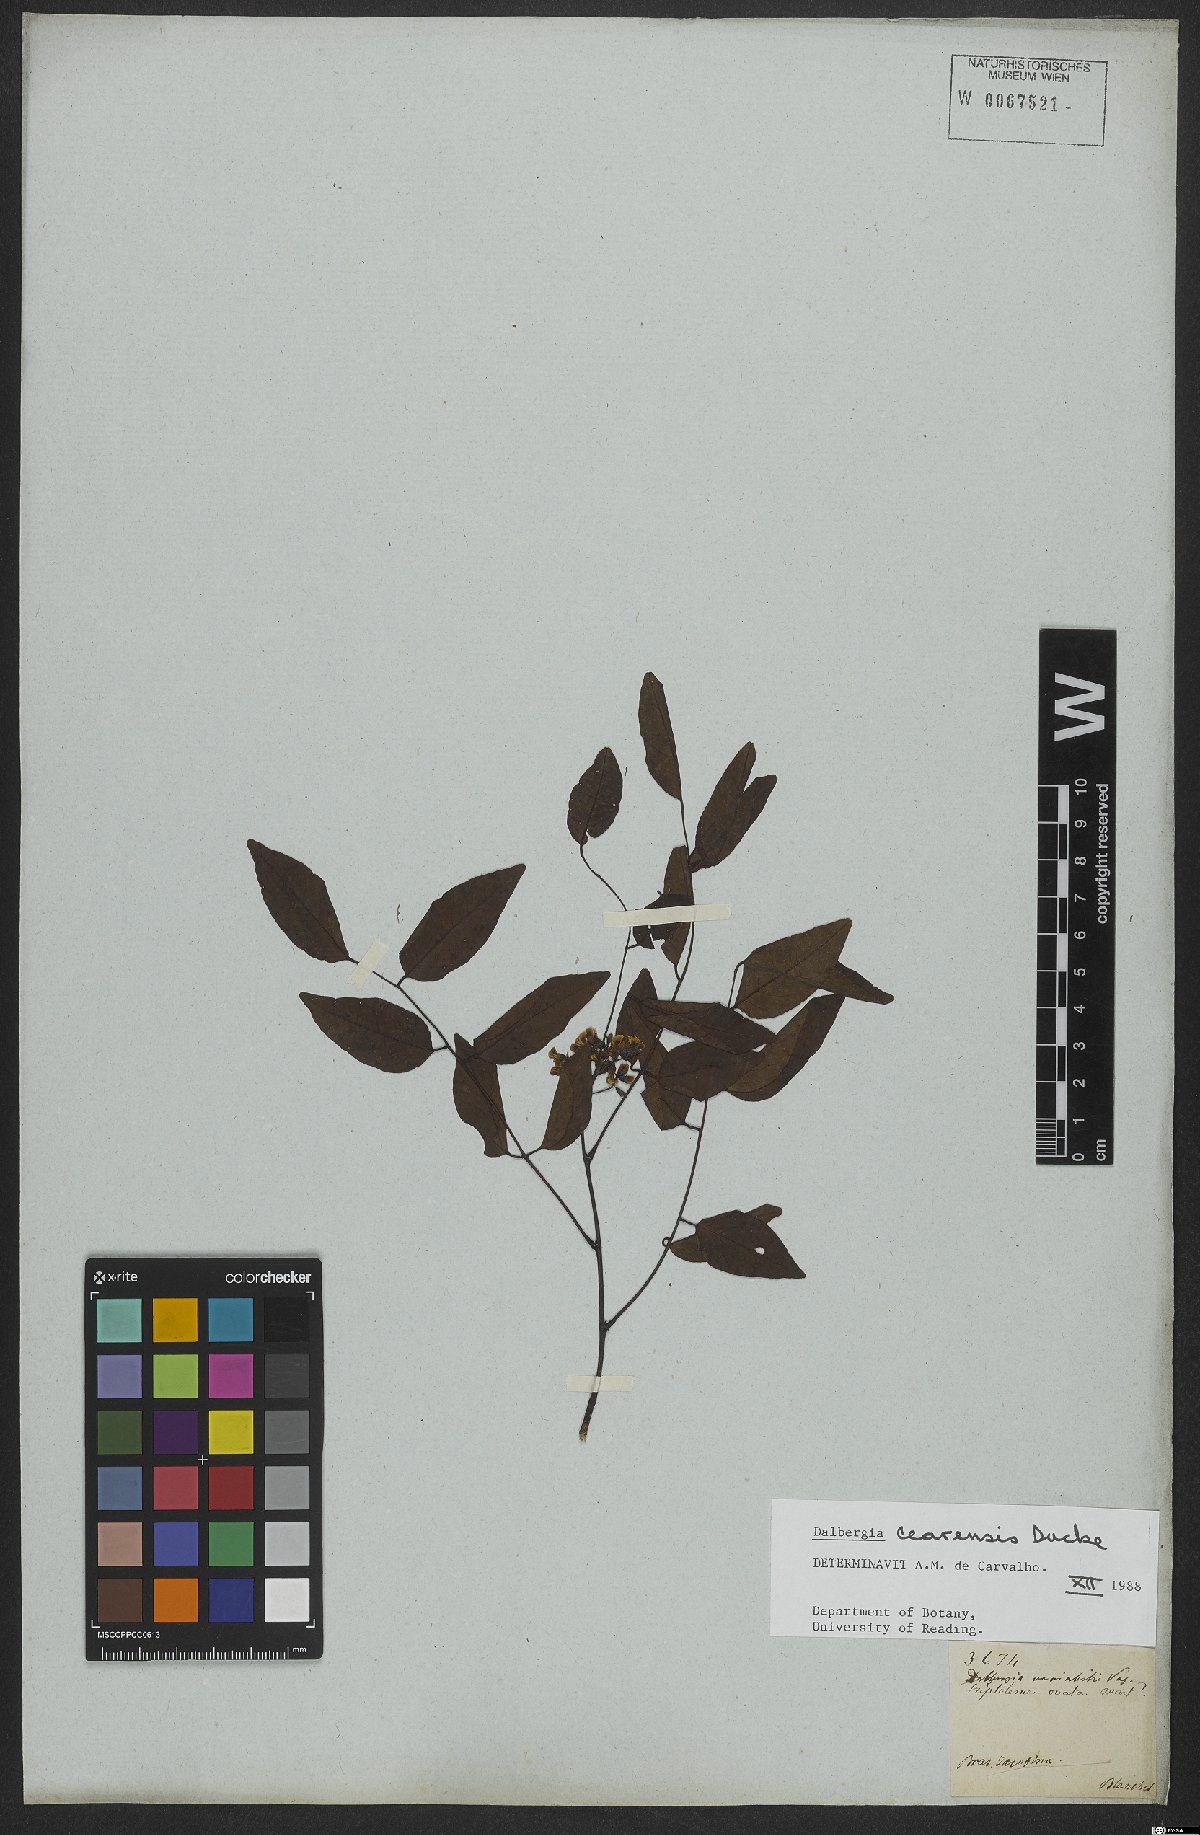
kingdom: Plantae
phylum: Tracheophyta
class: Magnoliopsida
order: Fabales
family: Fabaceae
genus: Dalbergia
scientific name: Dalbergia cearensis
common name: Brazilian-king-wood
